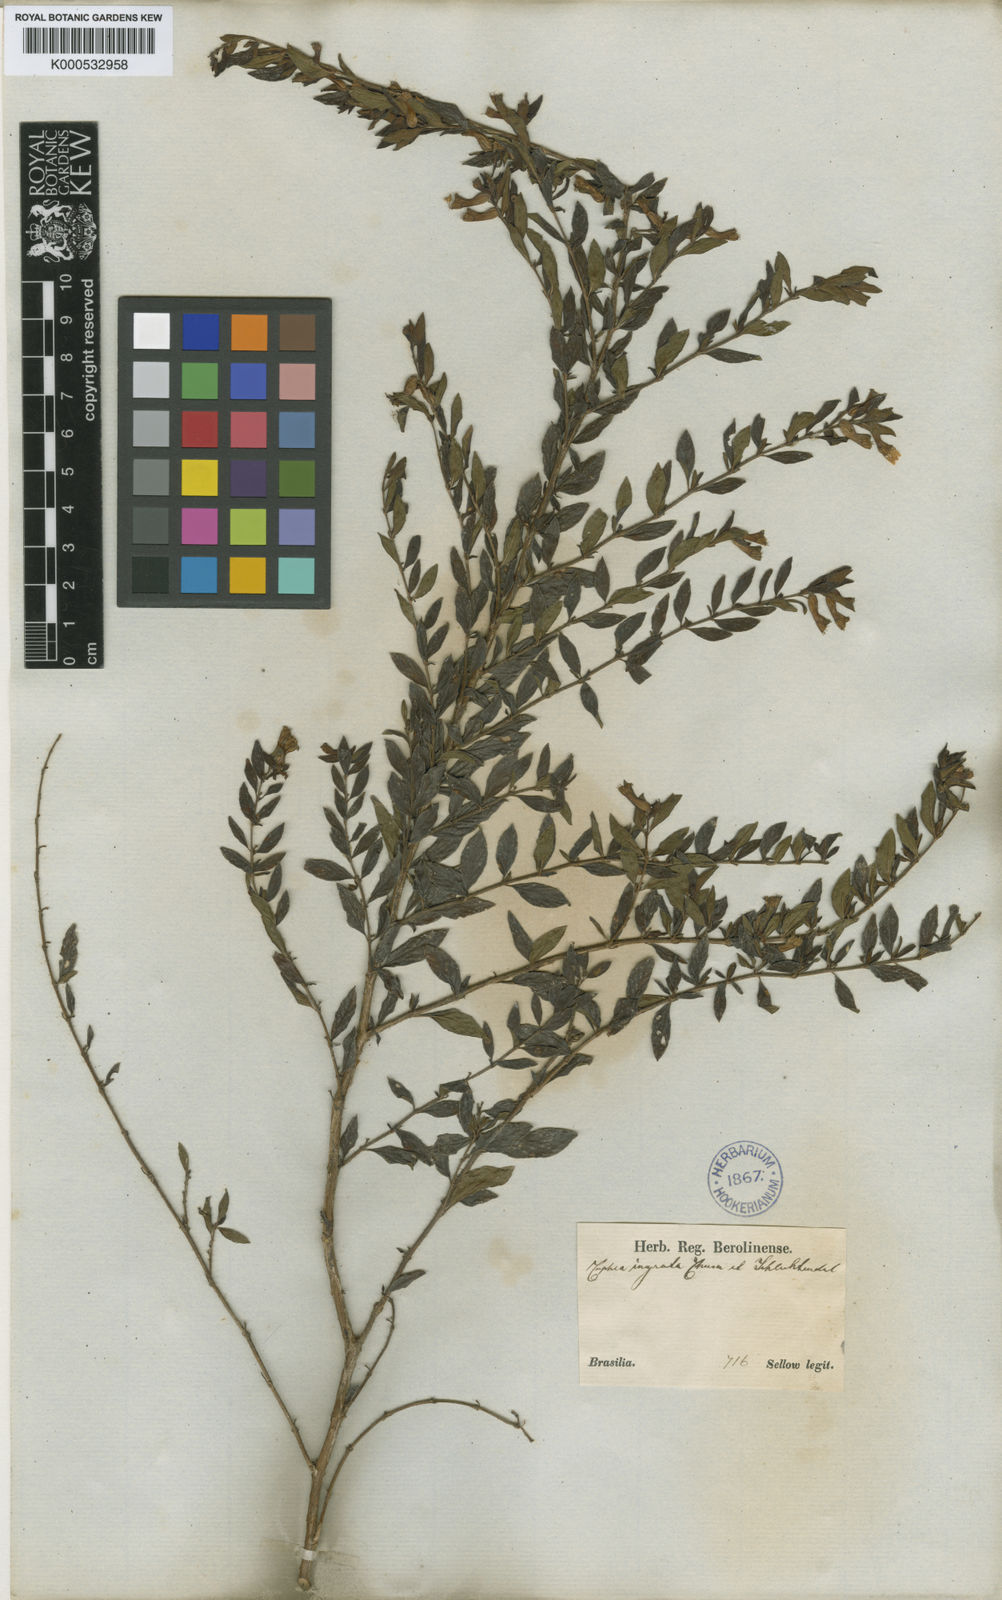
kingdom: Plantae
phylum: Tracheophyta
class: Magnoliopsida
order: Myrtales
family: Lythraceae
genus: Cuphea
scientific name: Cuphea ingrata
